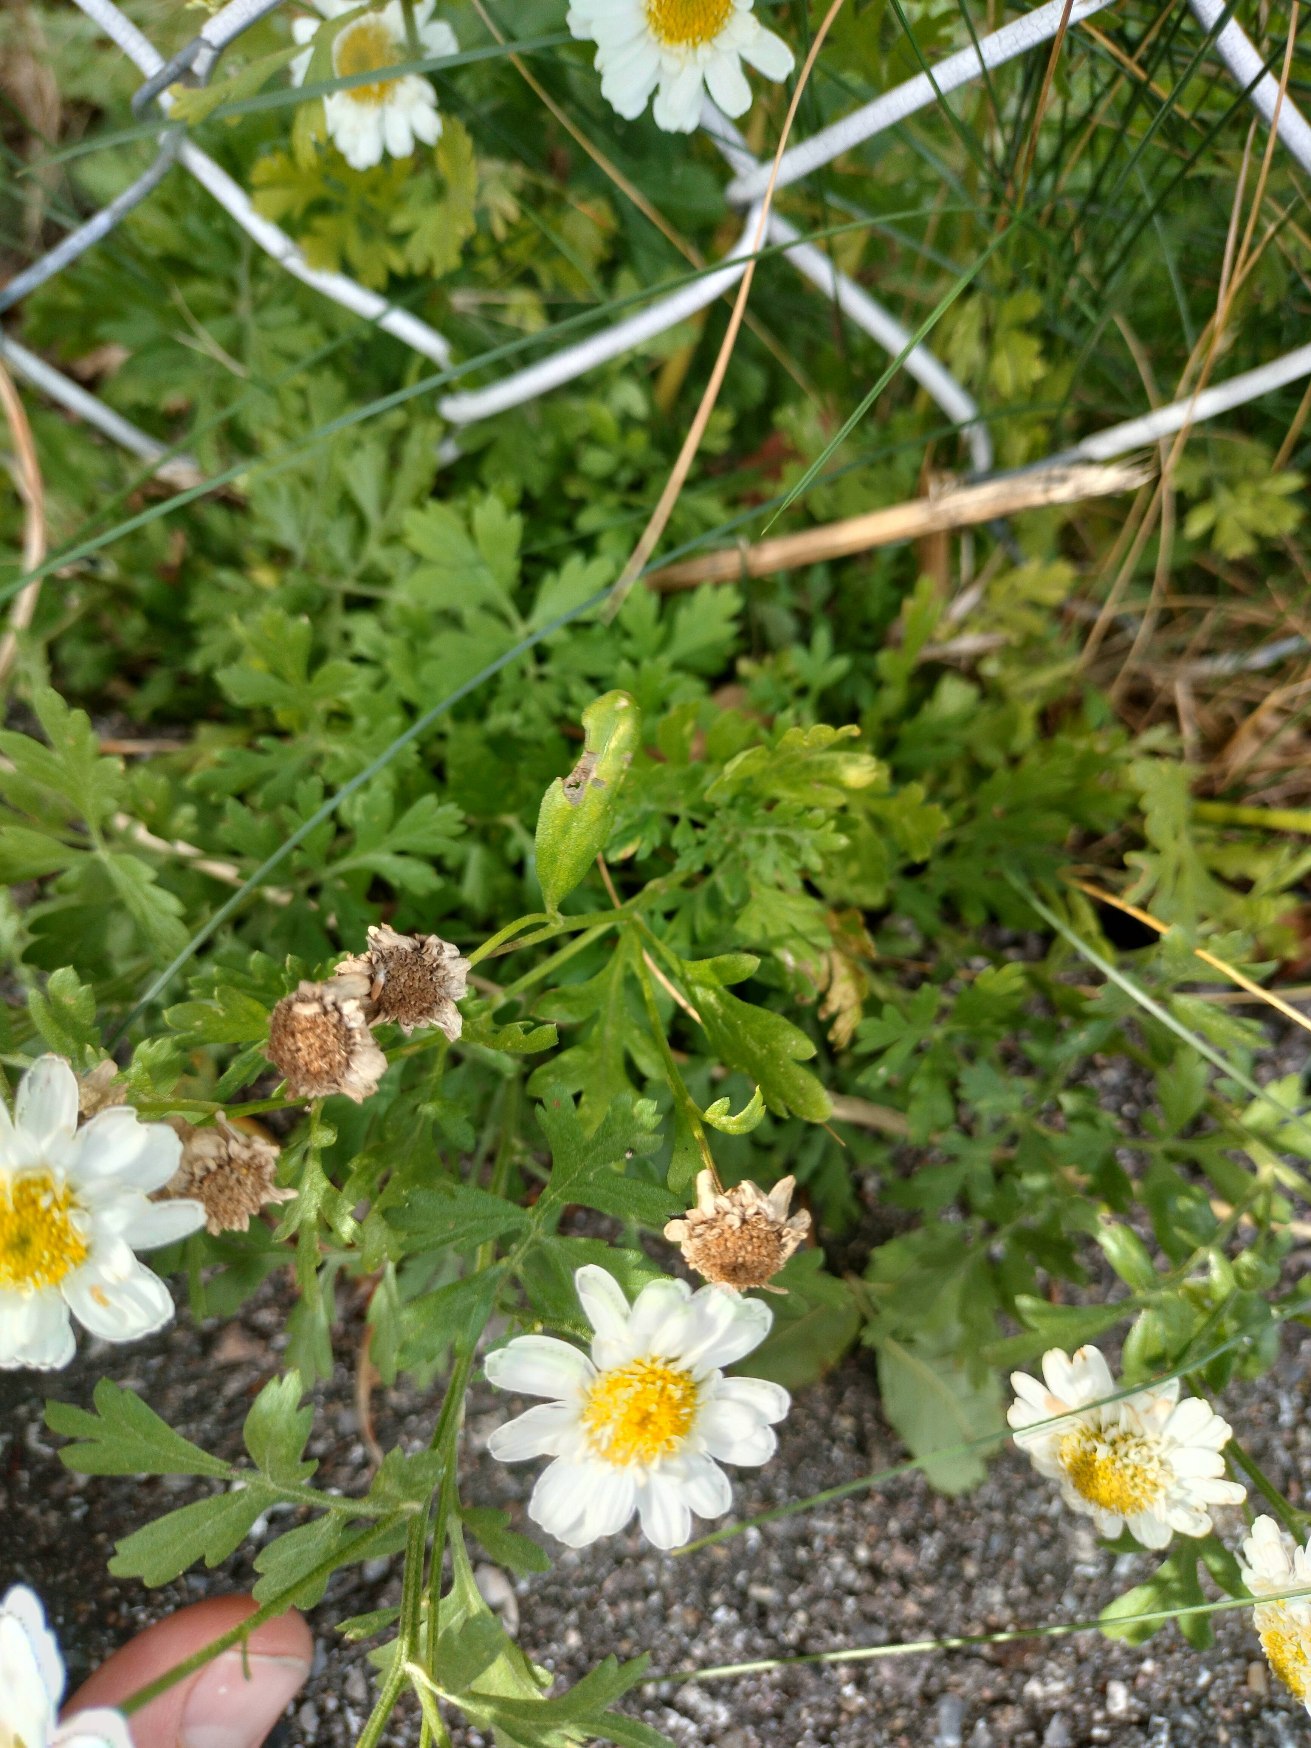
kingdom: Plantae
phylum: Tracheophyta
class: Magnoliopsida
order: Asterales
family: Asteraceae
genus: Tanacetum
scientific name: Tanacetum parthenium
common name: Matrem
